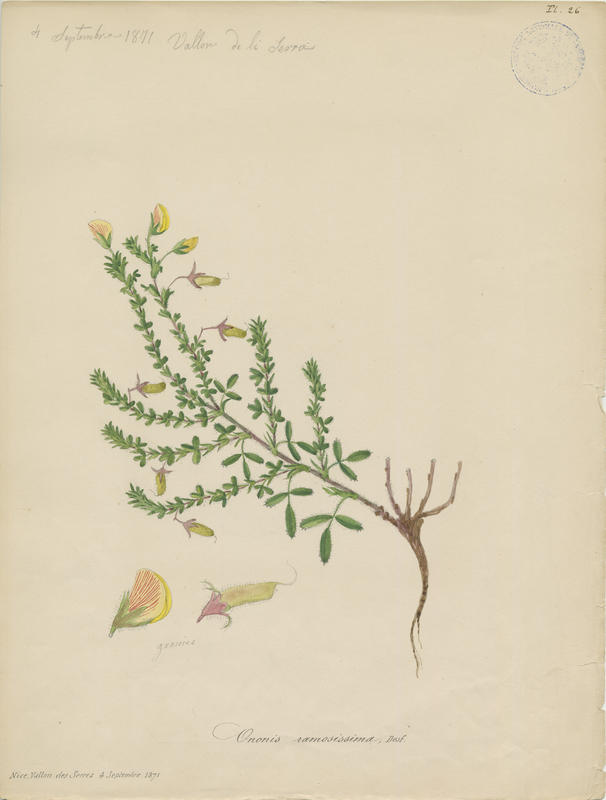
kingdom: Plantae
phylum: Tracheophyta
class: Magnoliopsida
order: Fabales
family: Fabaceae
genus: Ononis
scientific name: Ononis ramosissima
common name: Bush restharrow
